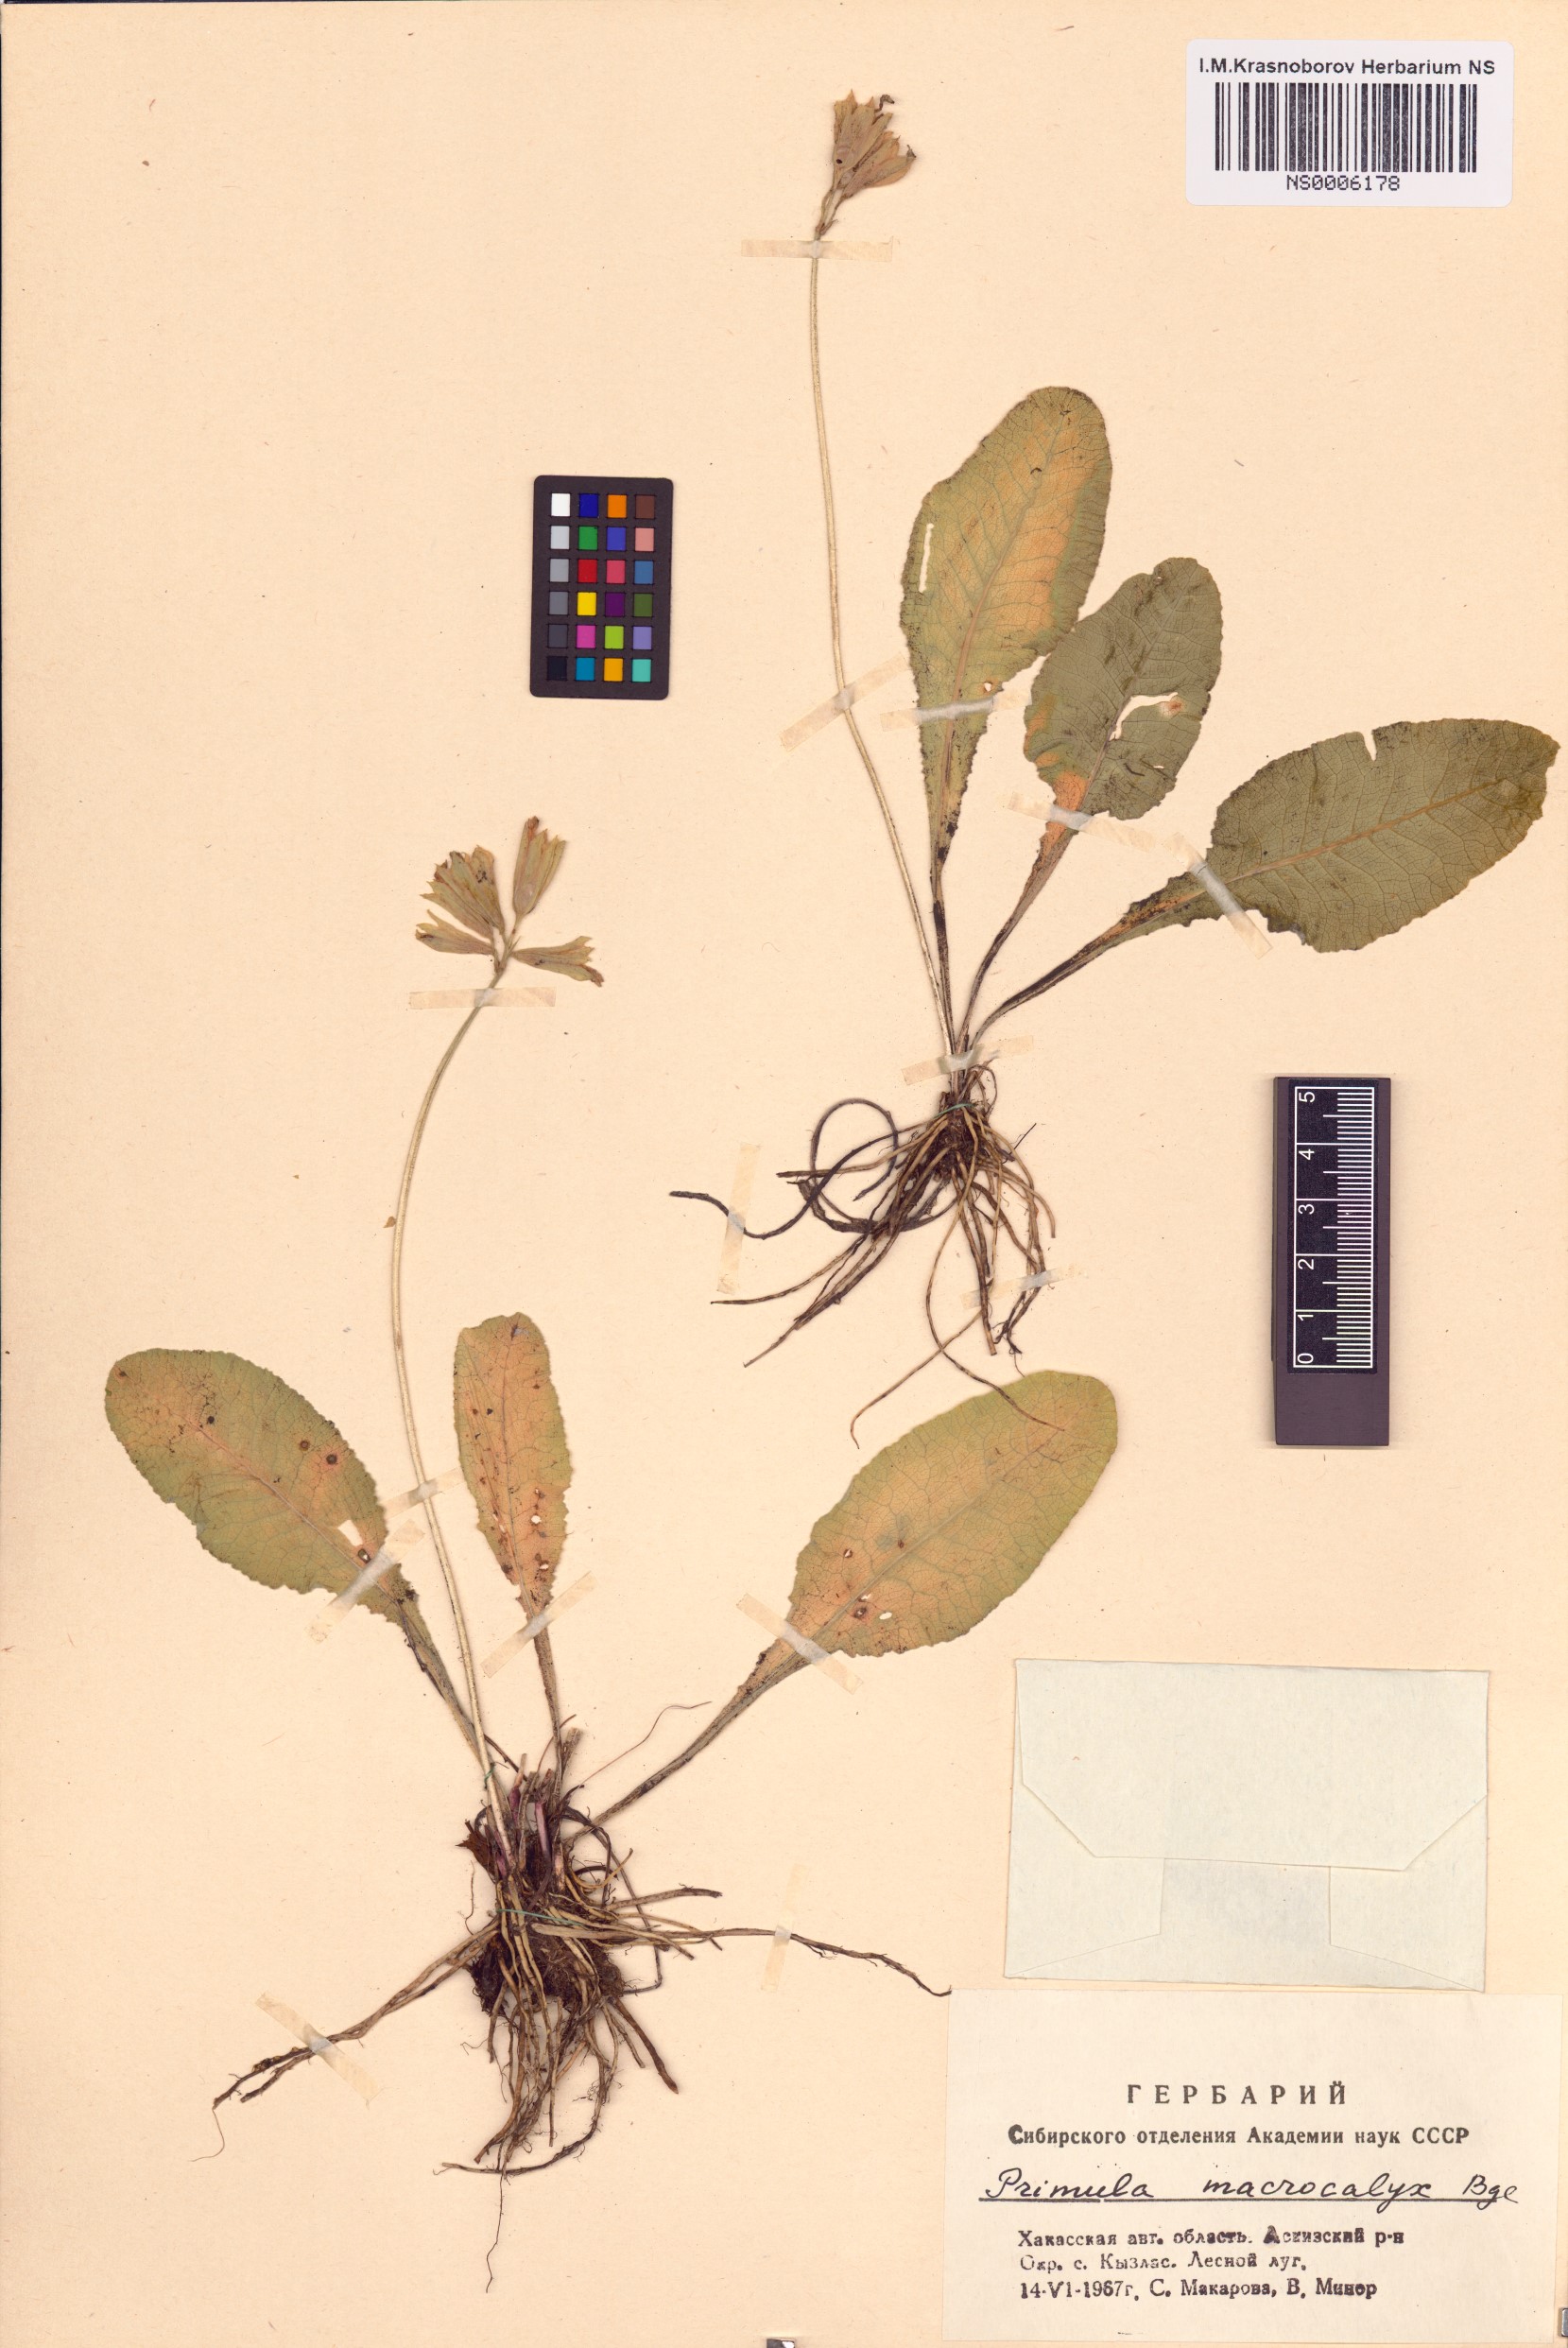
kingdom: Plantae
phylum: Tracheophyta
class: Magnoliopsida
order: Ericales
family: Primulaceae
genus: Primula
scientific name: Primula veris
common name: Cowslip
